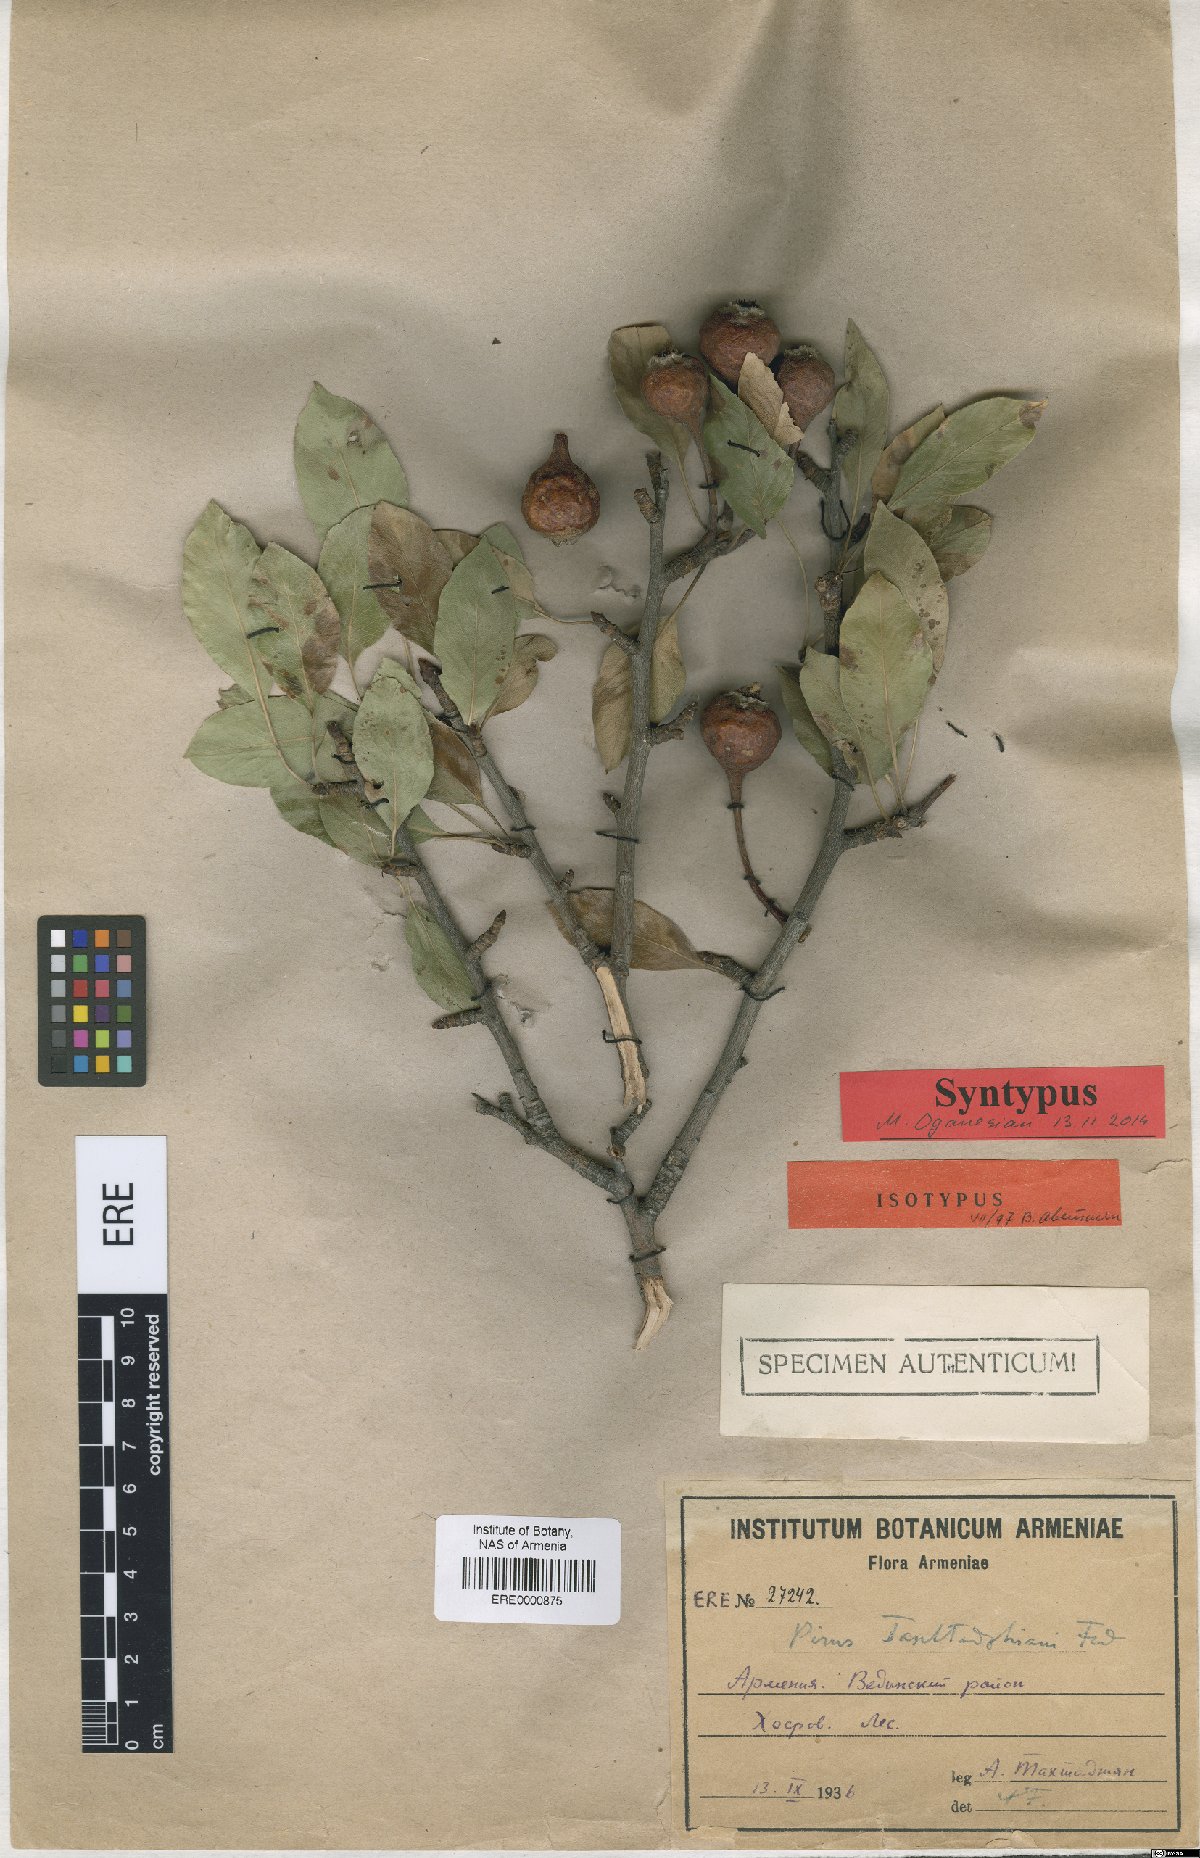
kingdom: Plantae
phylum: Tracheophyta
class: Magnoliopsida
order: Rosales
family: Rosaceae
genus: Pyrus
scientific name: Pyrus takhtadzhianii
